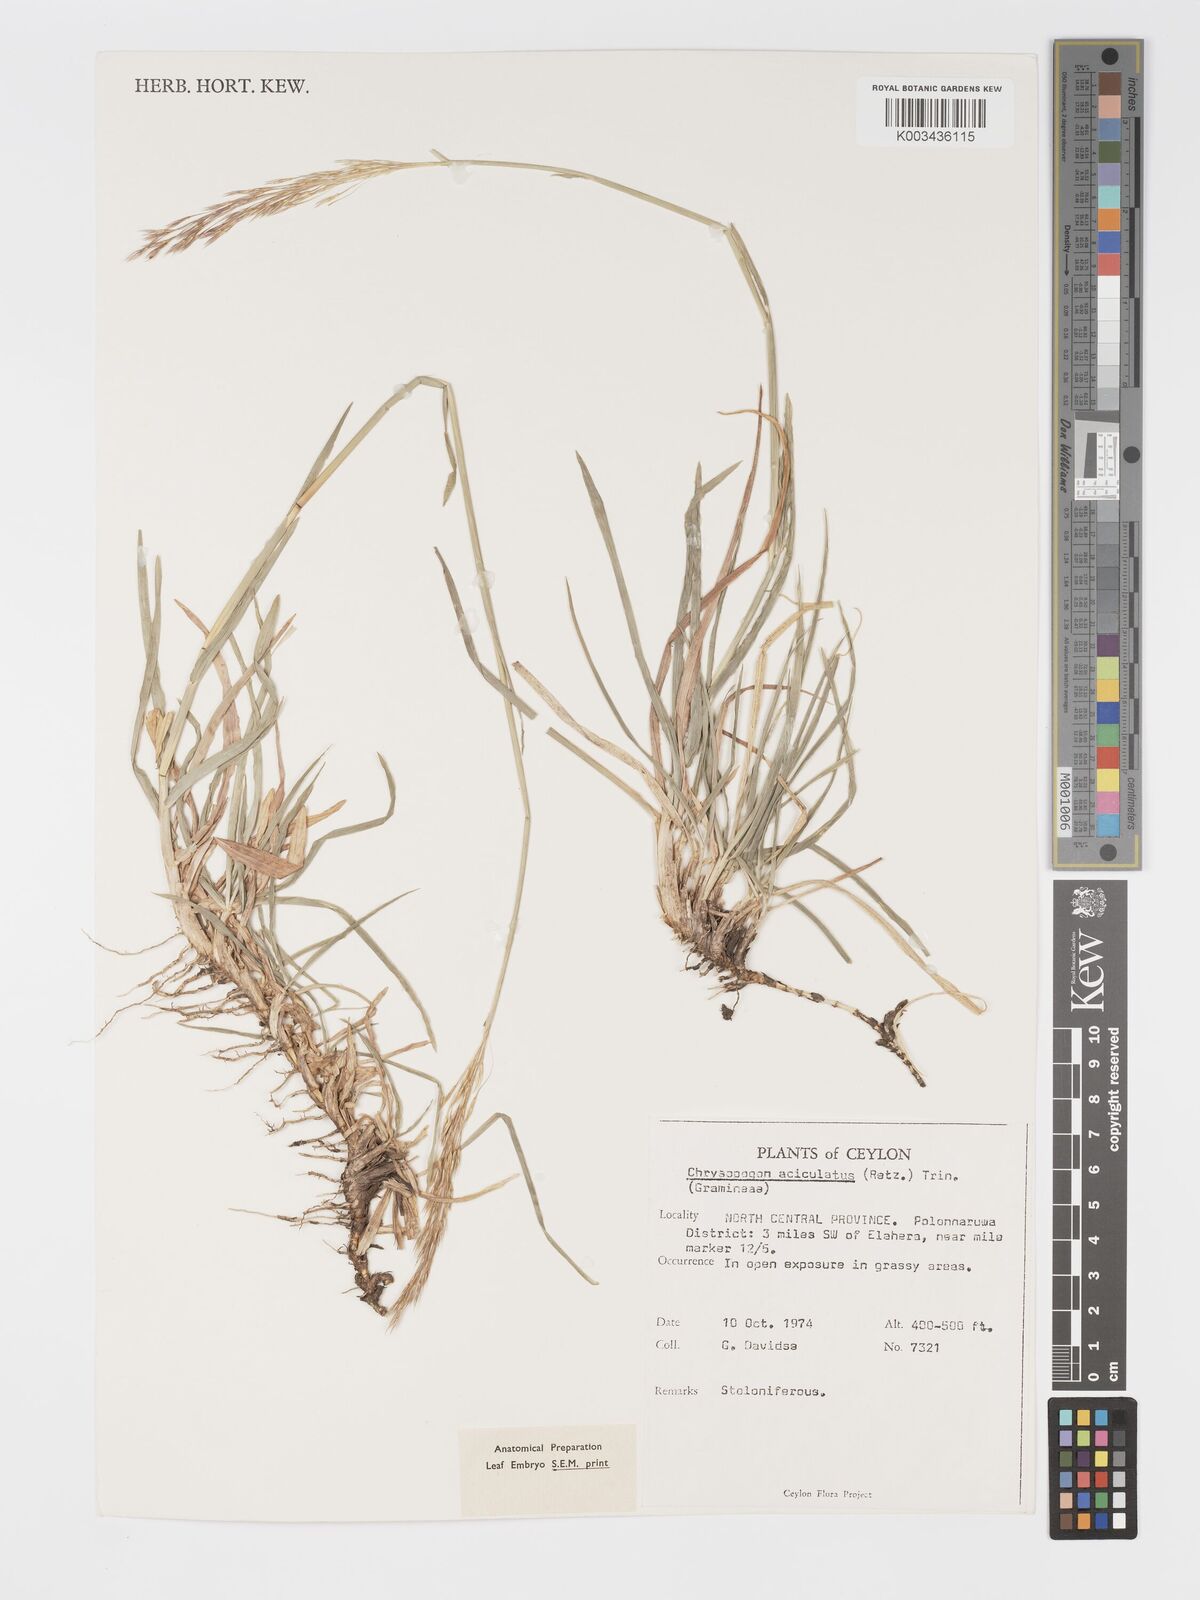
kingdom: Plantae
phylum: Tracheophyta
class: Liliopsida
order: Poales
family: Poaceae
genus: Chrysopogon
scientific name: Chrysopogon aciculatus
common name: Pilipiliula
